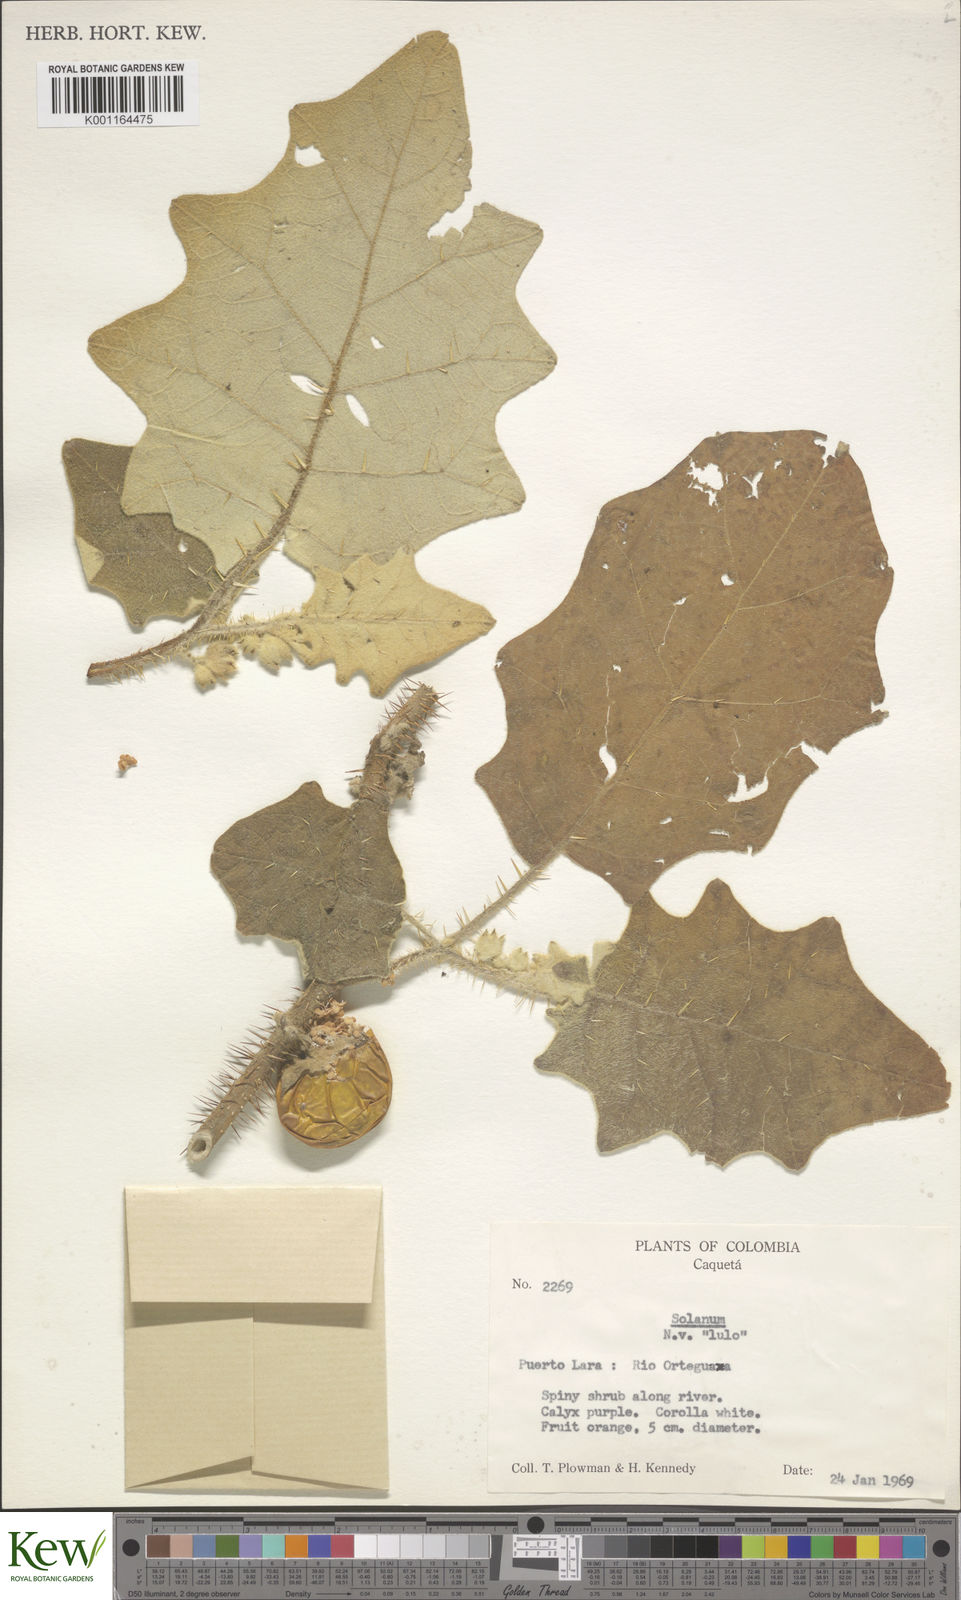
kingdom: Plantae
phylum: Tracheophyta
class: Magnoliopsida
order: Solanales
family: Solanaceae
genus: Solanum
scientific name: Solanum
